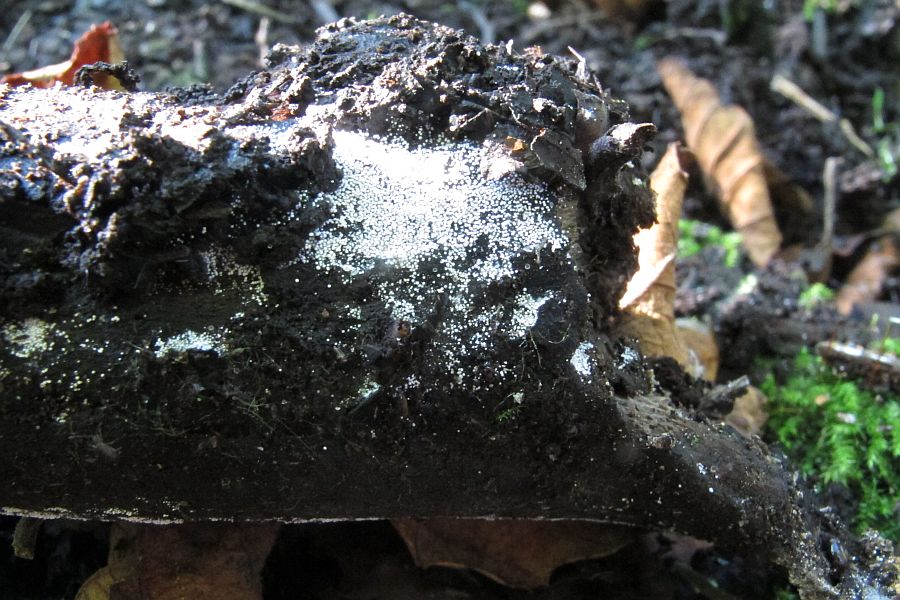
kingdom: Fungi
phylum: Basidiomycota
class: Agaricomycetes
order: Trechisporales
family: Hydnodontaceae
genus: Subulicystidium
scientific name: Subulicystidium longisporum
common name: almindelig pigtrådshinde
